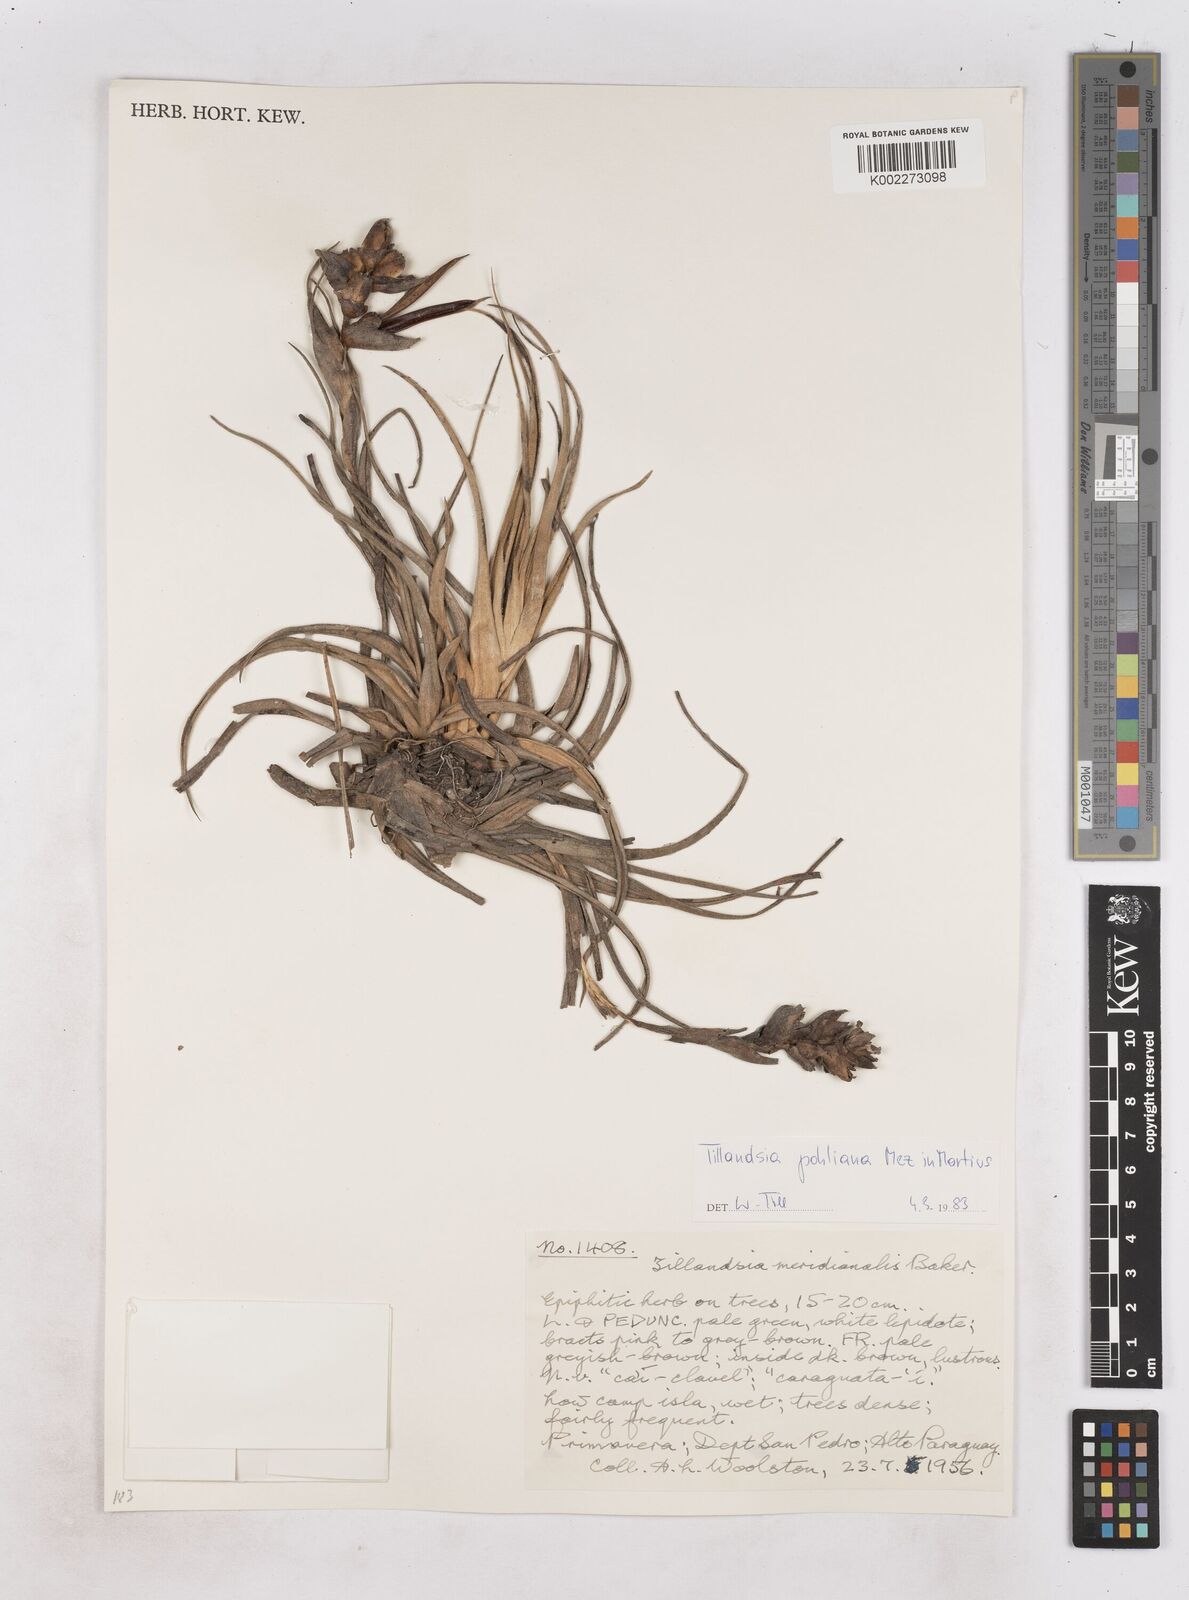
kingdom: Plantae
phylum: Tracheophyta
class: Liliopsida
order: Poales
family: Bromeliaceae
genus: Tillandsia
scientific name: Tillandsia pohliana
